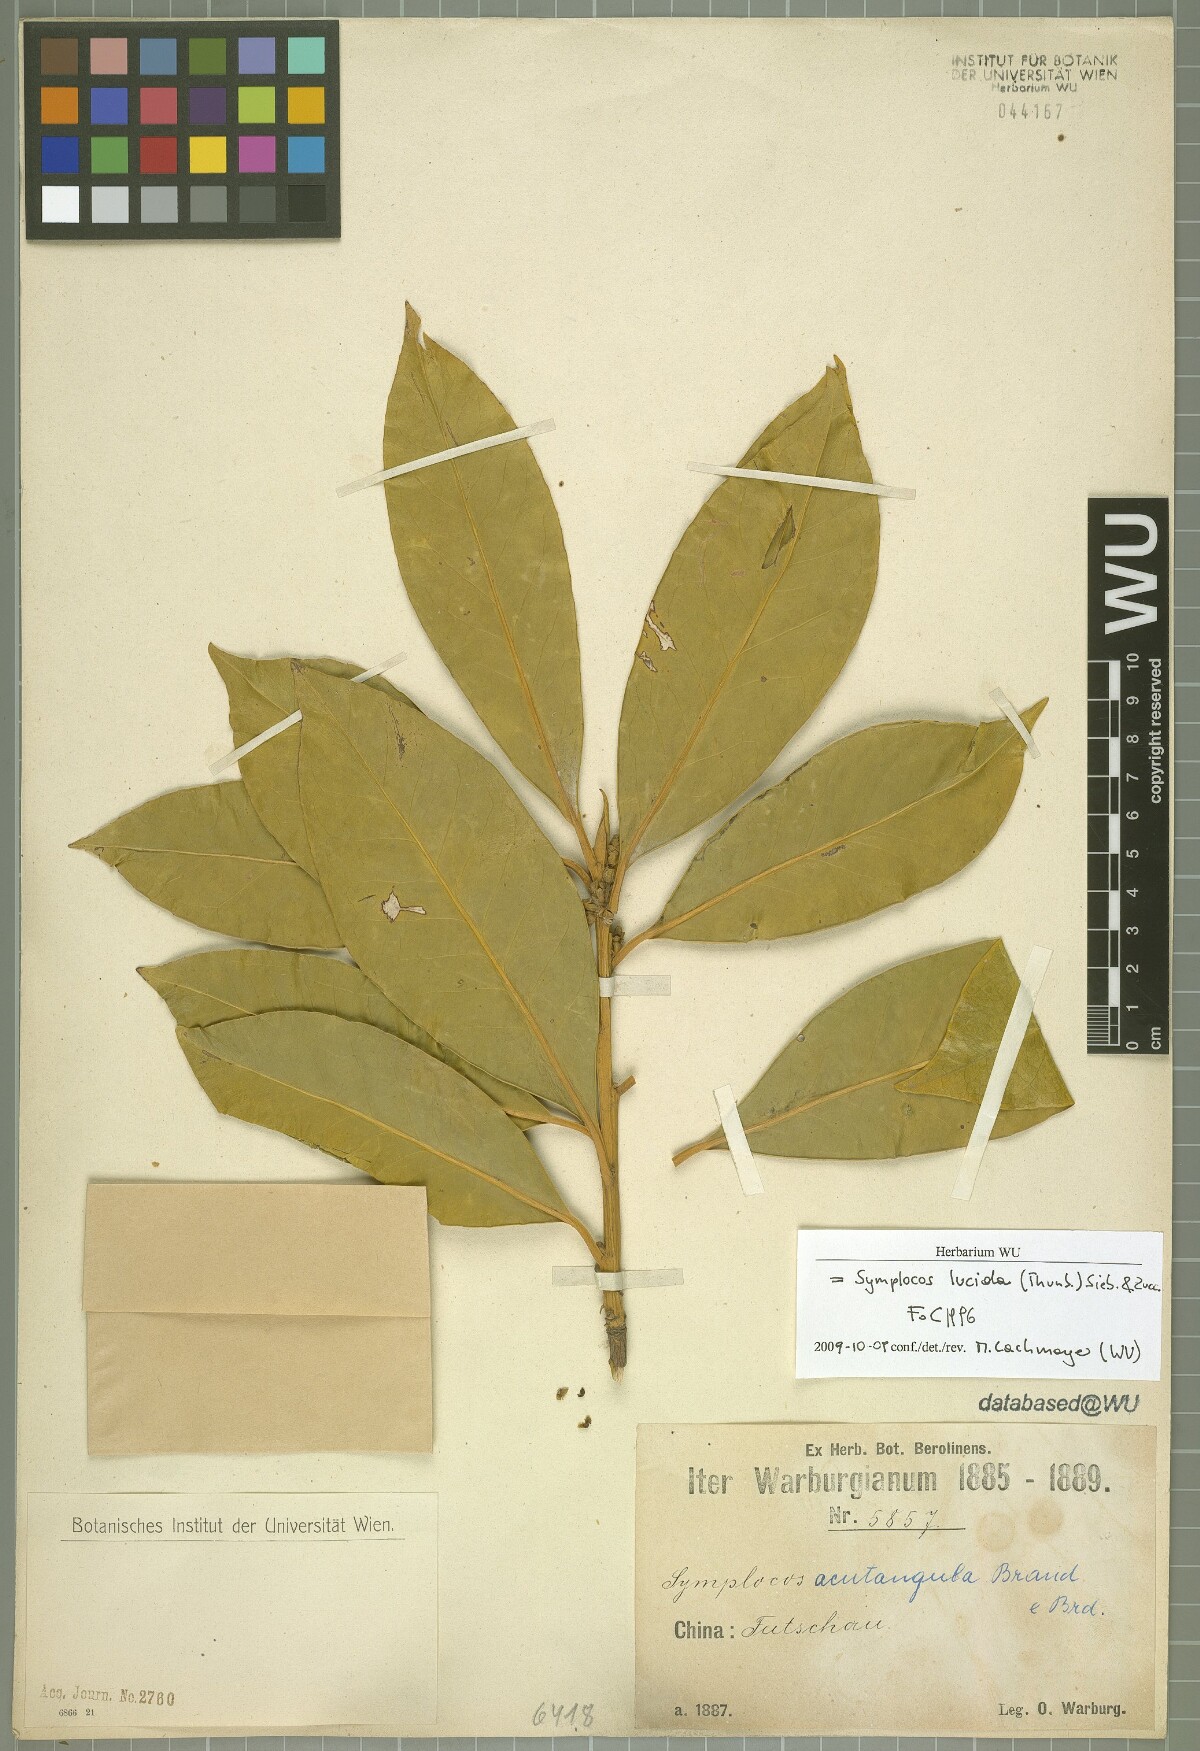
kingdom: Plantae
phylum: Tracheophyta
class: Magnoliopsida
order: Ericales
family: Symplocaceae
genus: Symplocos
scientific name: Symplocos nakaharae
